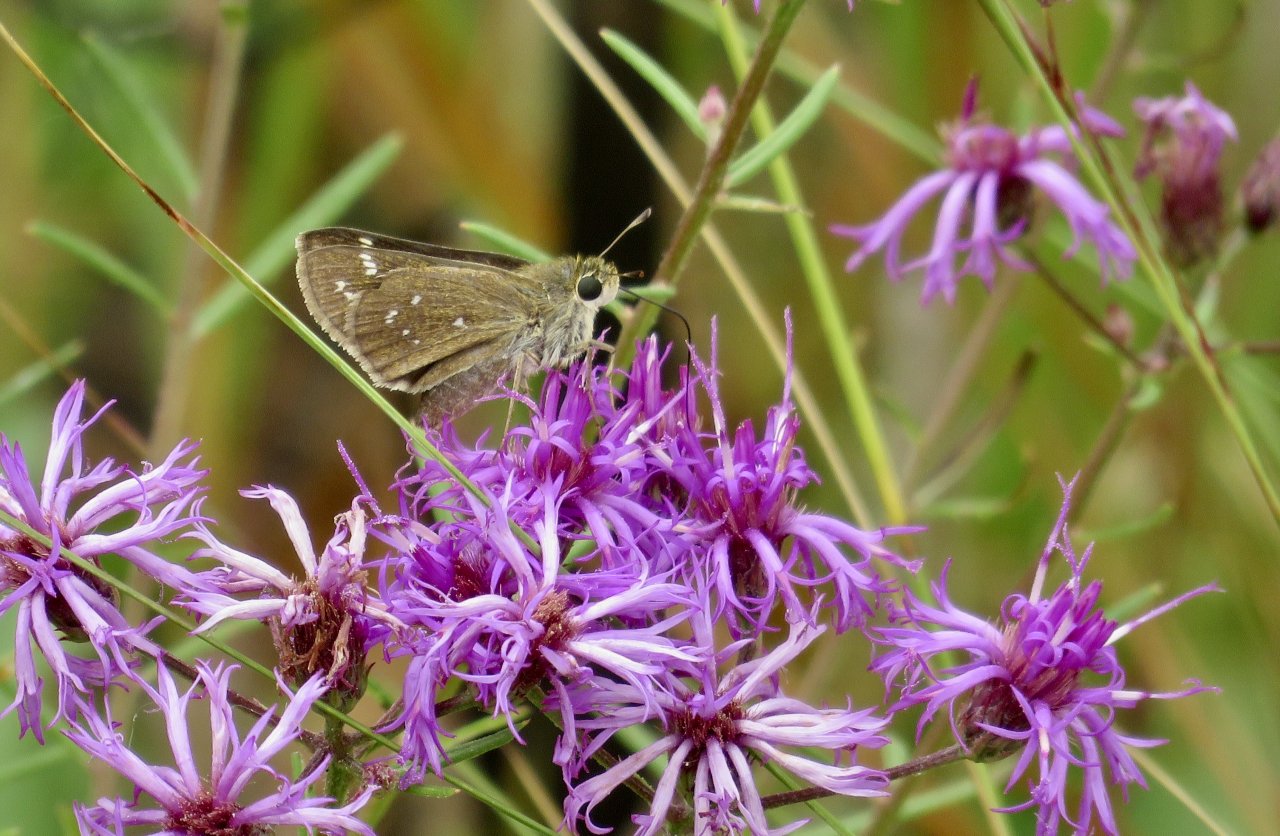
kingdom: Animalia
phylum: Arthropoda
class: Insecta
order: Lepidoptera
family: Hesperiidae
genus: Hesperia
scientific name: Hesperia attalus
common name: Dotted Skipper
